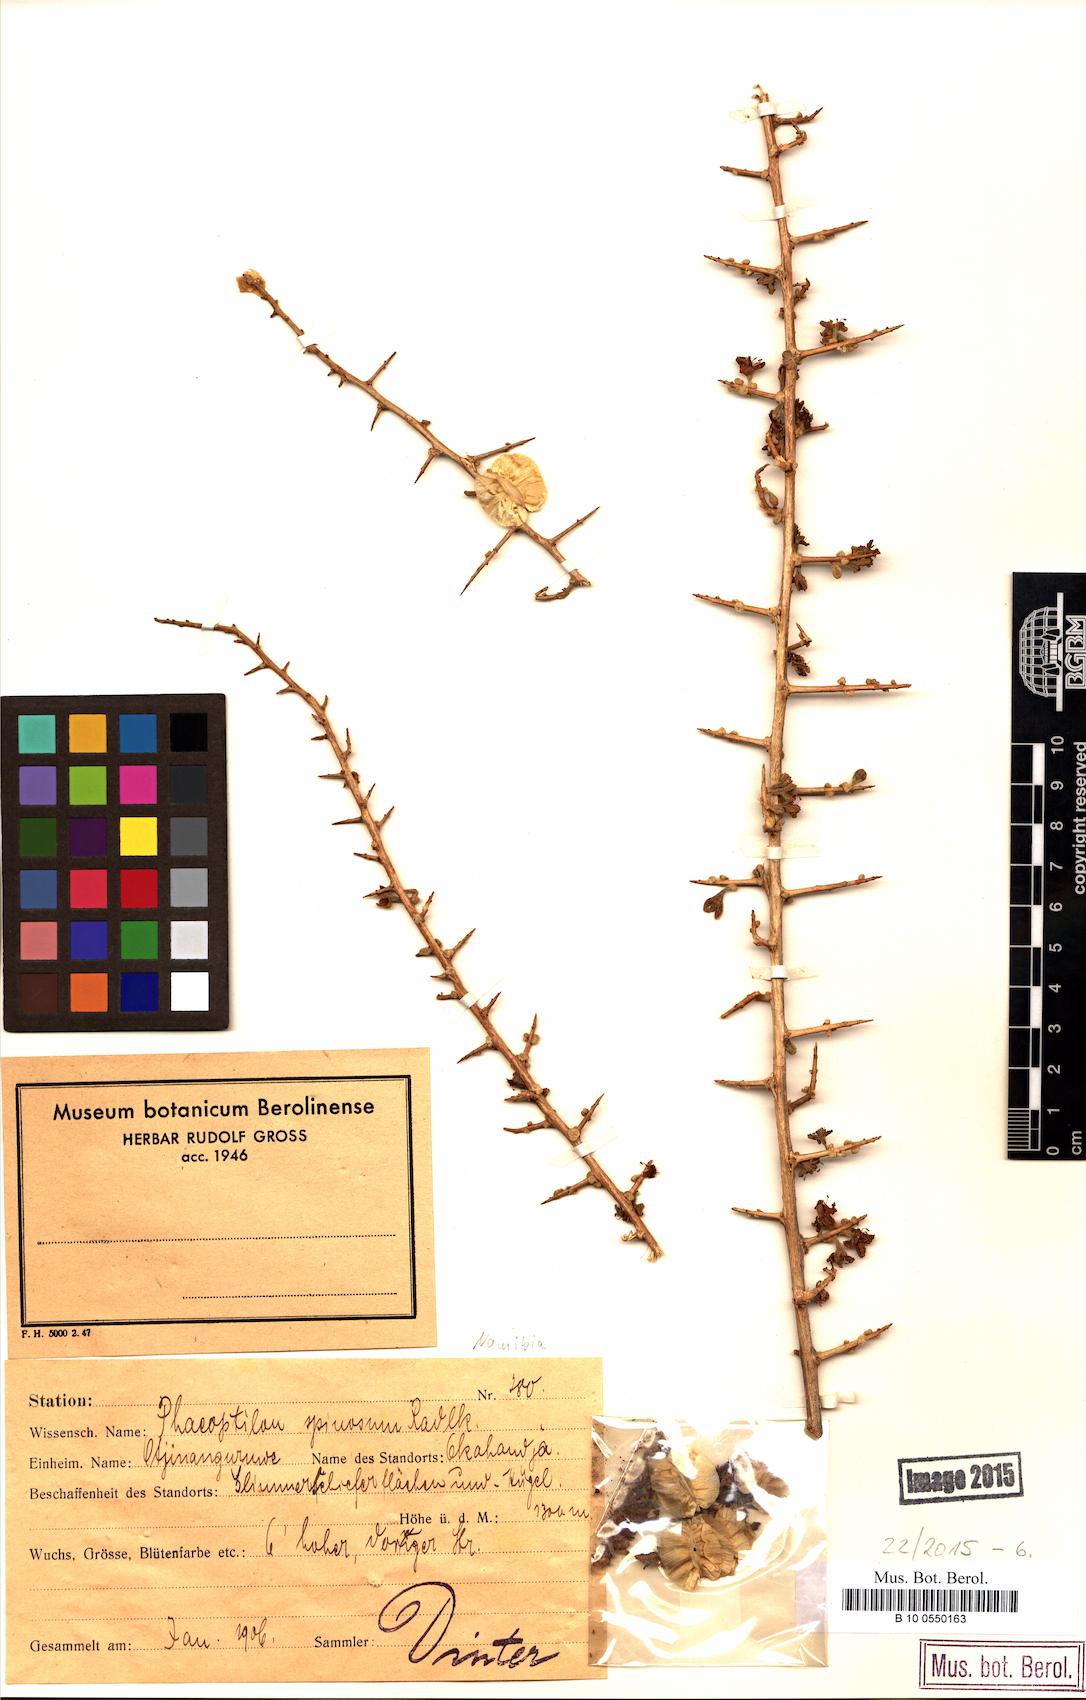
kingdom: Plantae
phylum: Tracheophyta
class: Magnoliopsida
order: Caryophyllales
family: Nyctaginaceae
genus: Phaeoptilum
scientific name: Phaeoptilum spinosum
